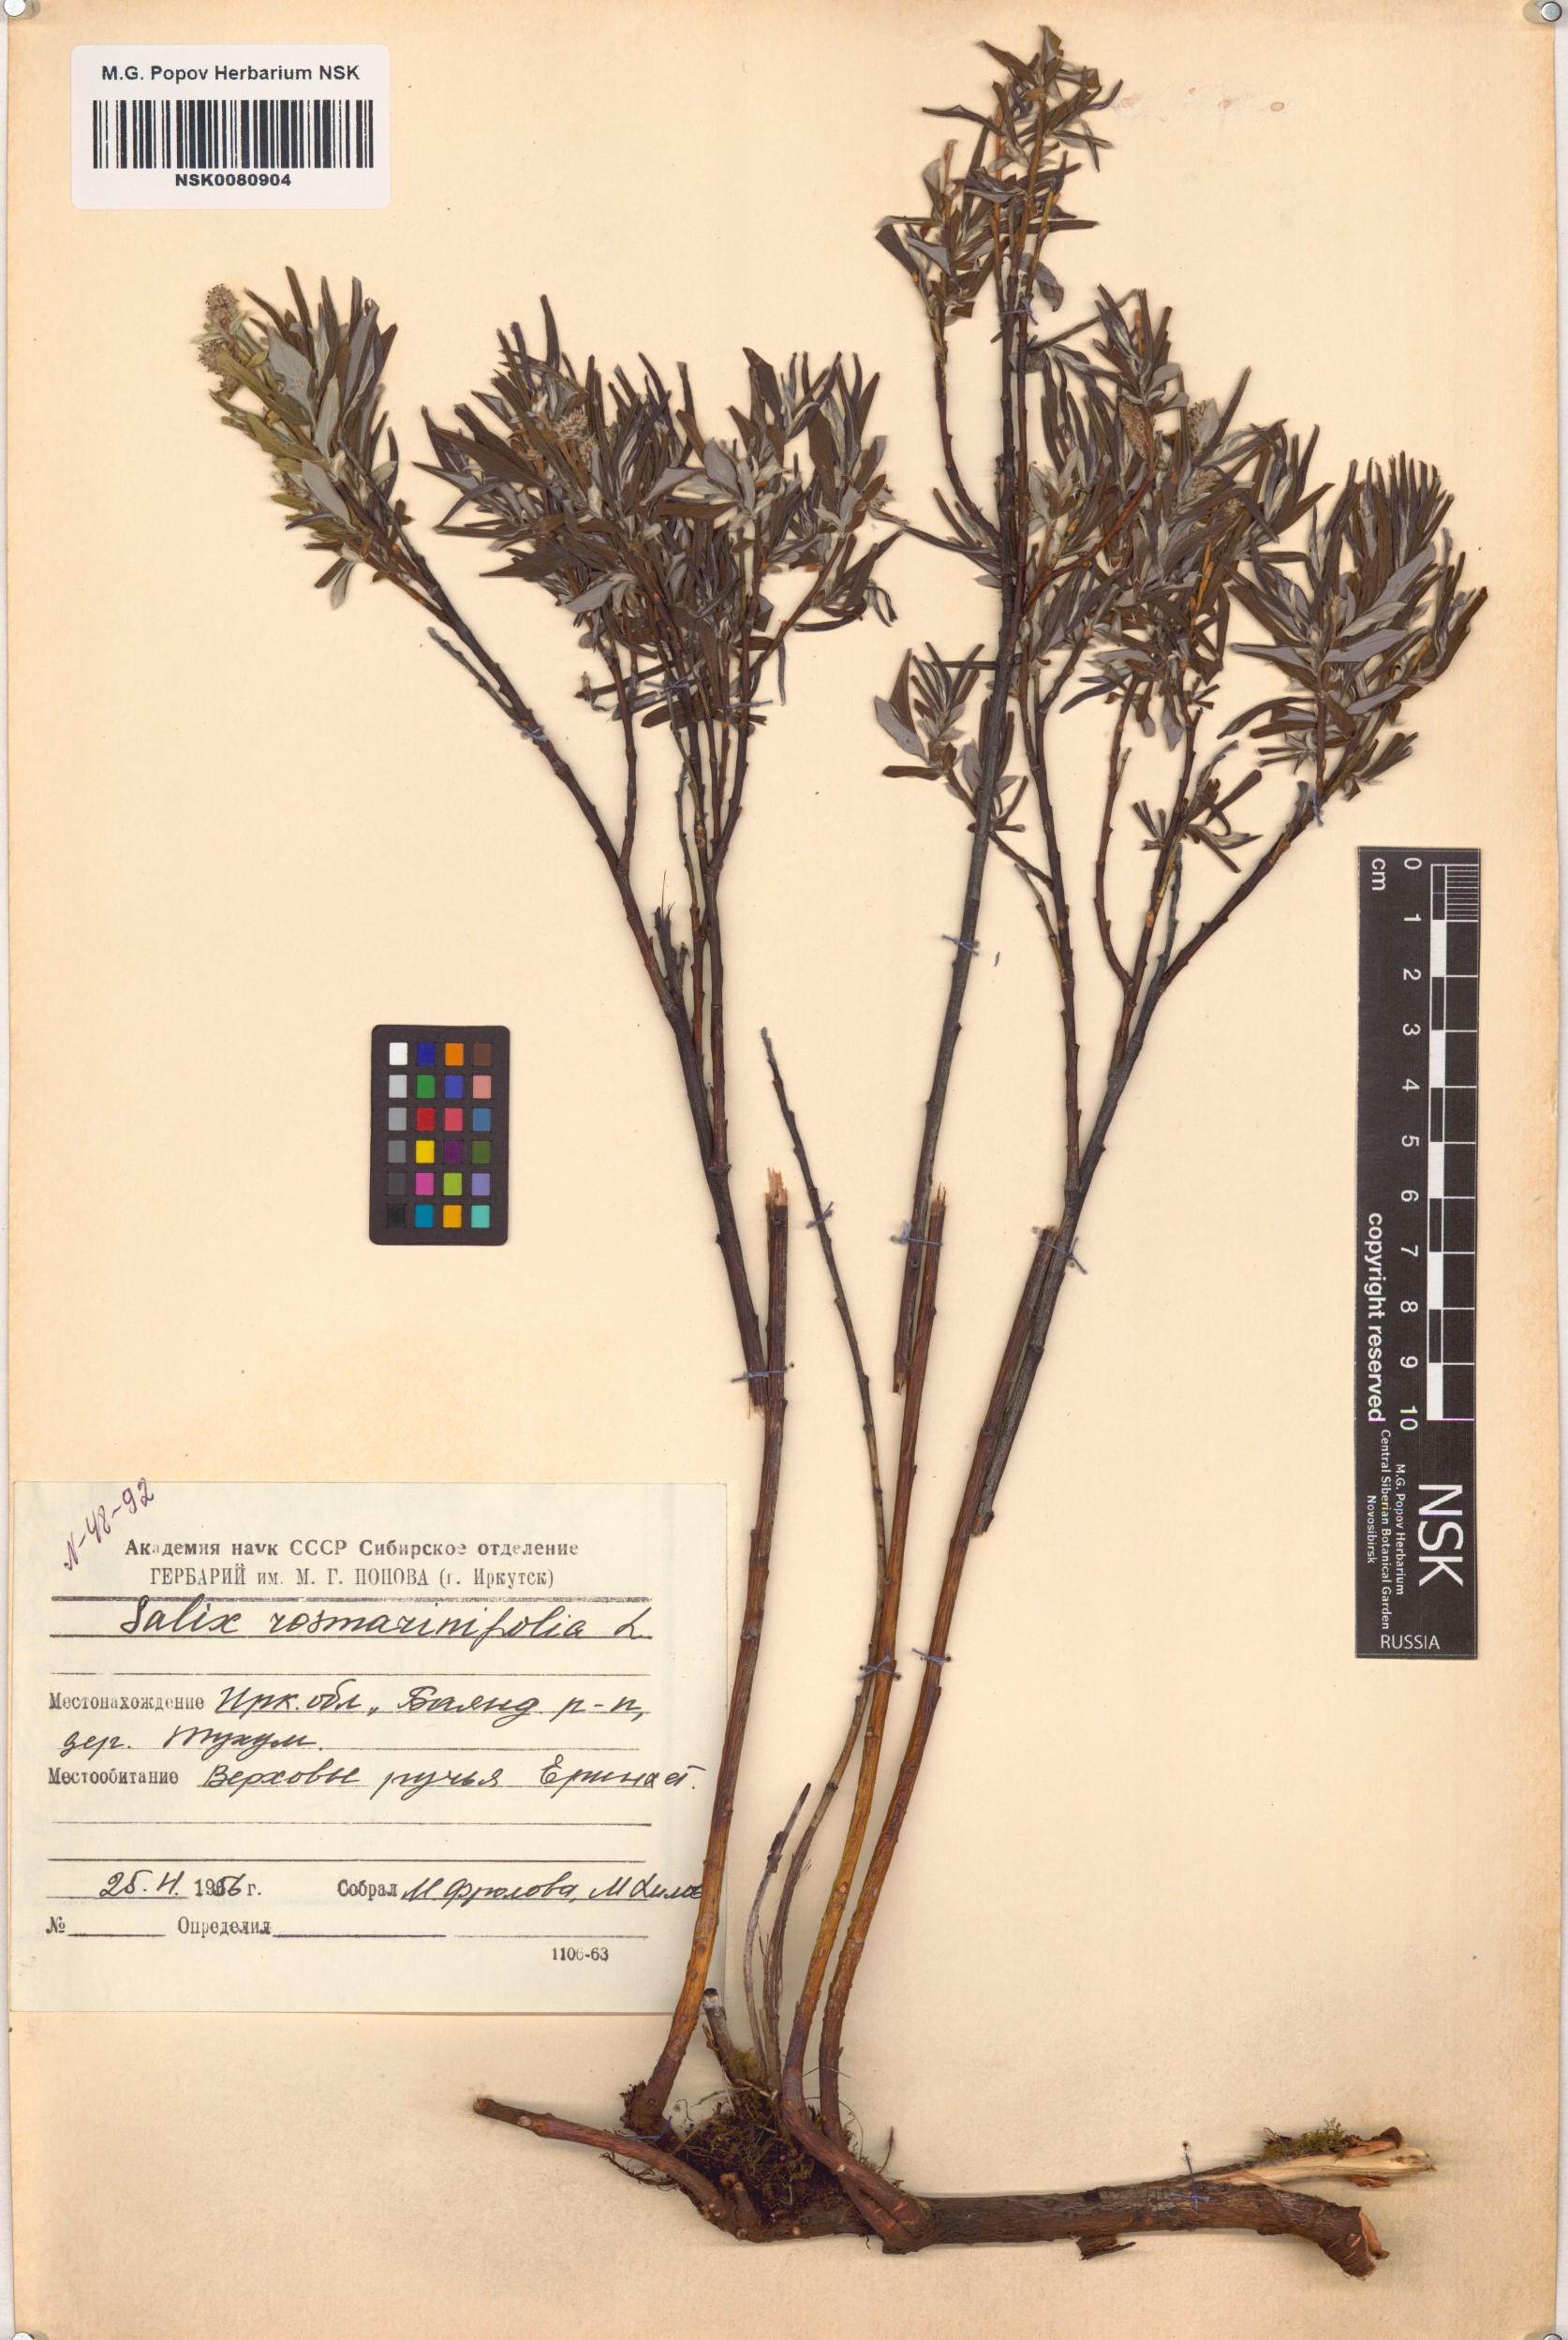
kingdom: Plantae
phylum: Tracheophyta
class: Magnoliopsida
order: Malpighiales
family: Salicaceae
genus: Salix
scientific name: Salix rosmarinifolia
